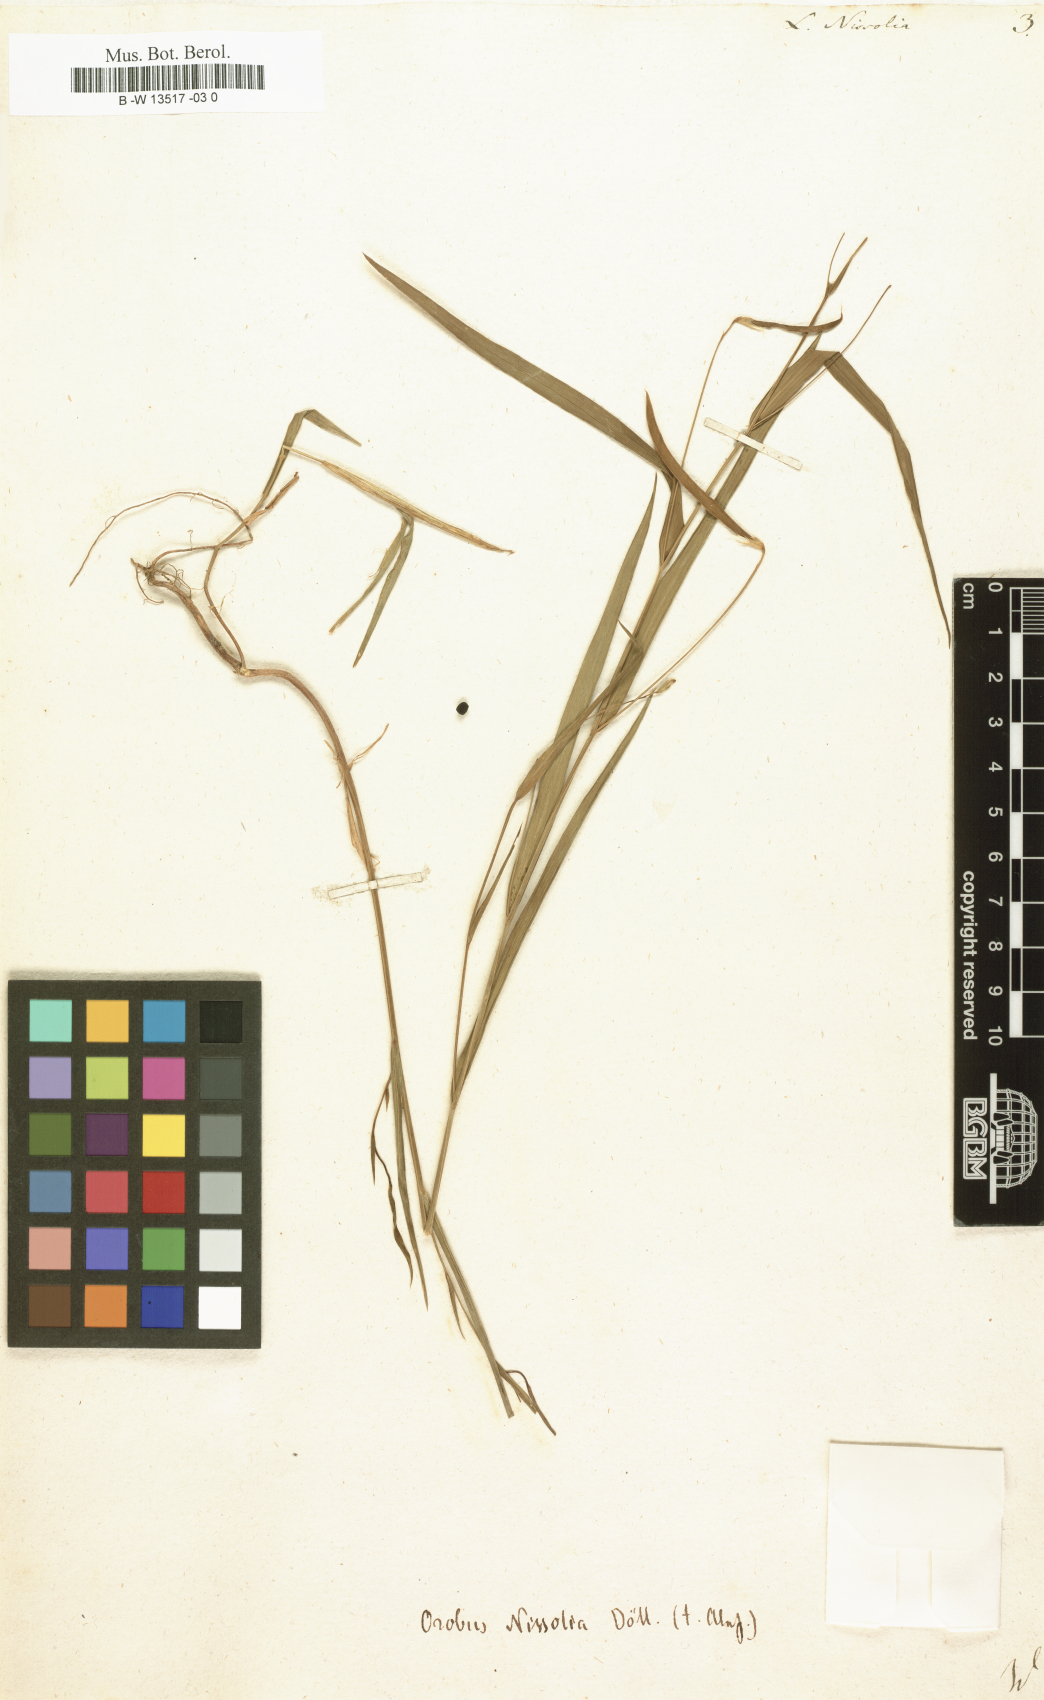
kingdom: Plantae
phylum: Tracheophyta
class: Magnoliopsida
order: Fabales
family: Fabaceae
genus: Lathyrus
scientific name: Lathyrus nissolia
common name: Grass vetchling
